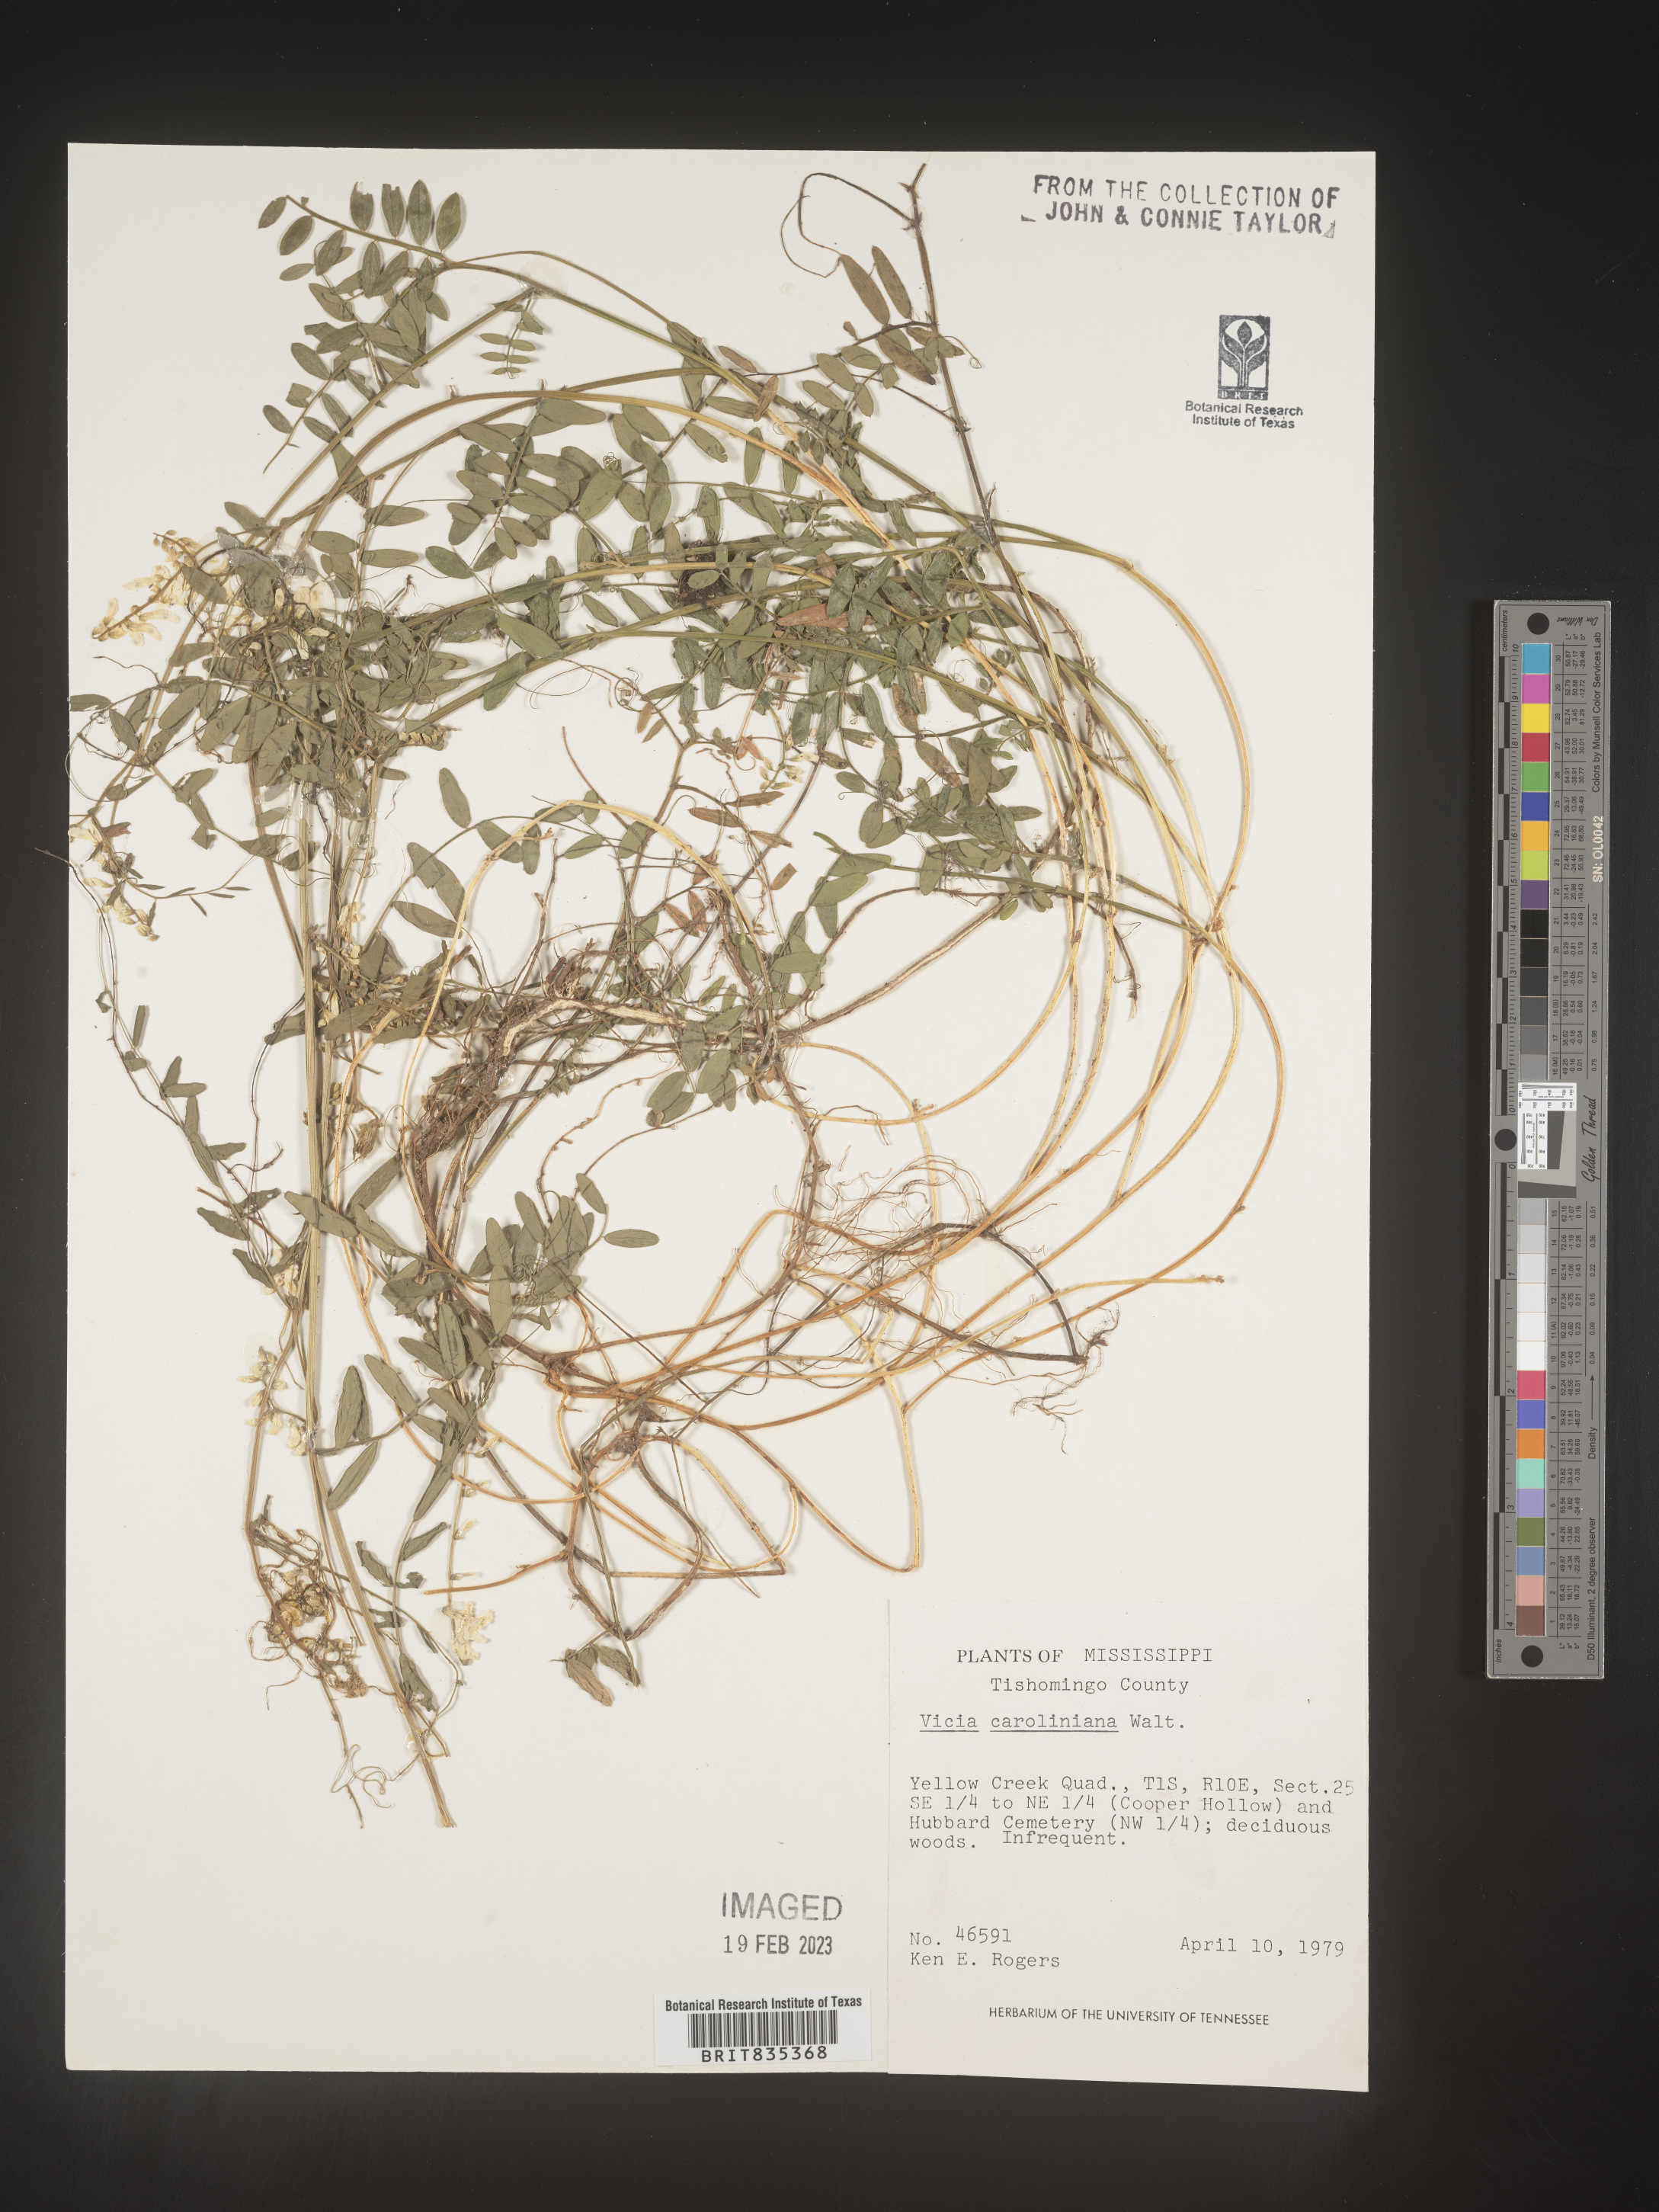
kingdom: Plantae
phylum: Tracheophyta
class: Magnoliopsida
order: Fabales
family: Fabaceae
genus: Vicia
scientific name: Vicia caroliniana
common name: Carolina vetch
